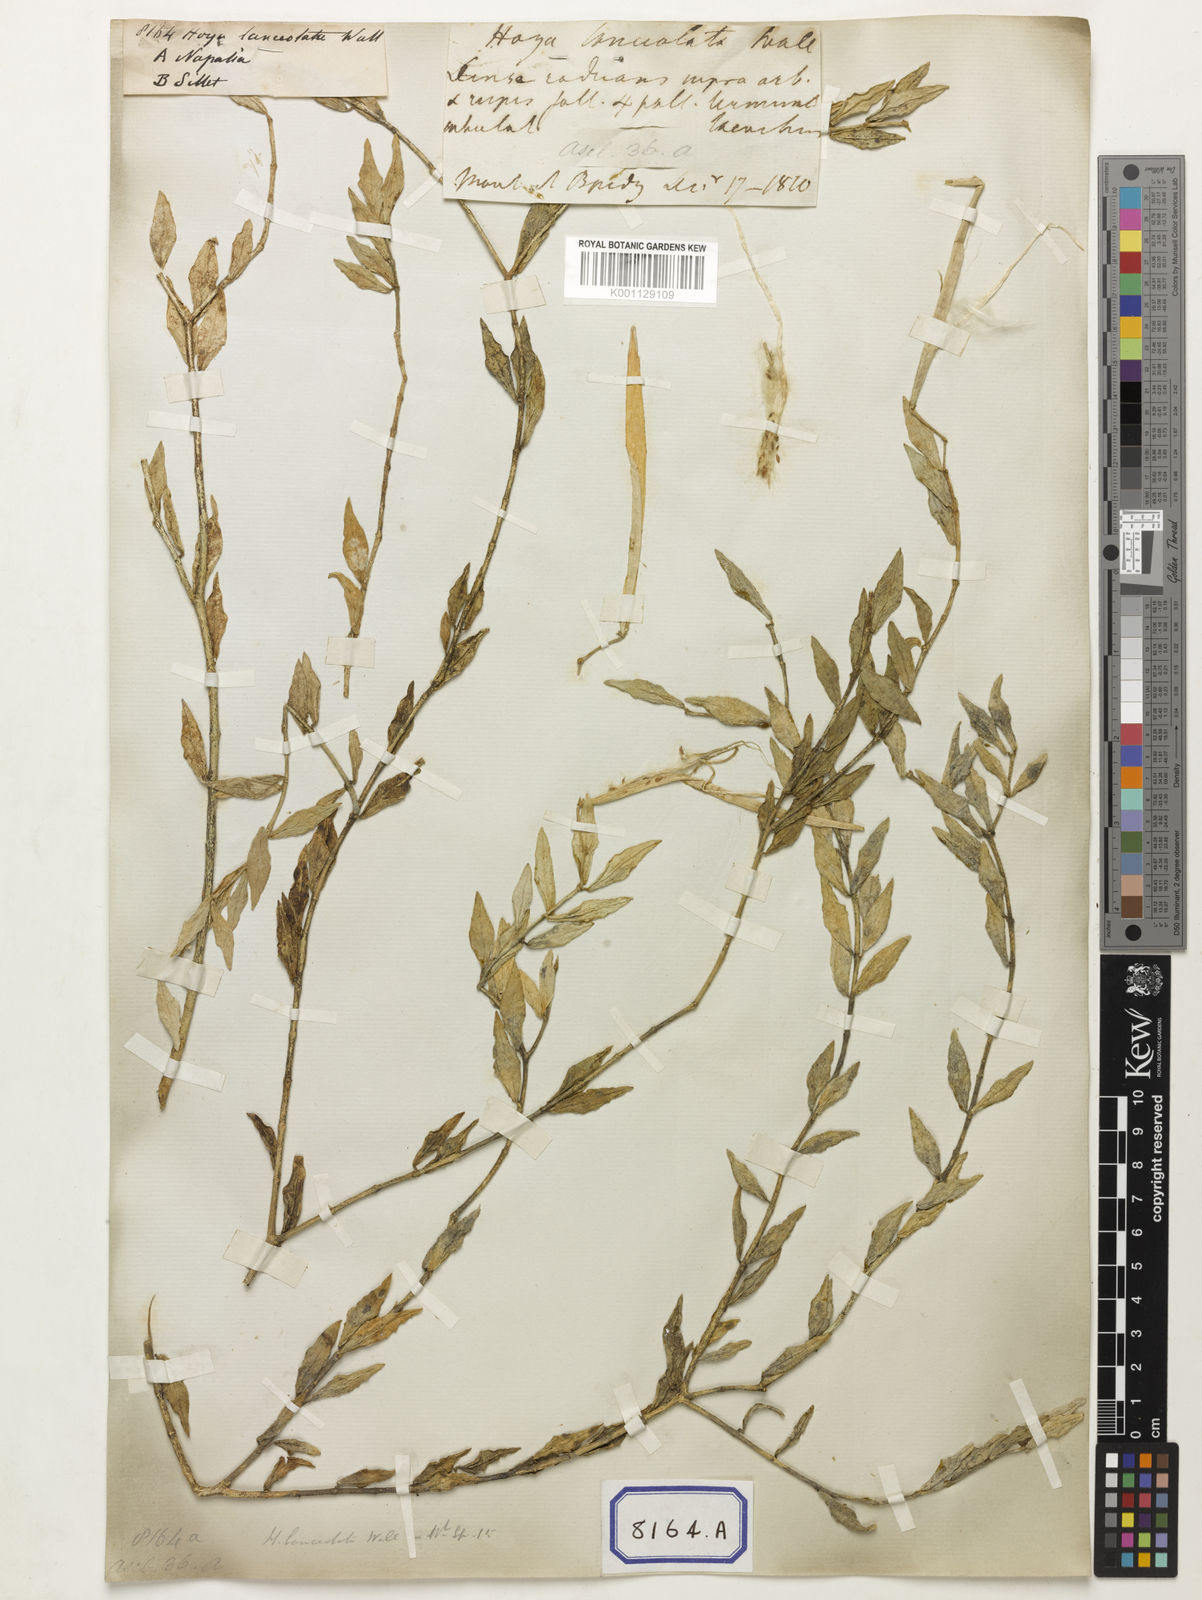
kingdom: Plantae
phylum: Tracheophyta
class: Magnoliopsida
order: Gentianales
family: Apocynaceae
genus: Hoya
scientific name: Hoya
